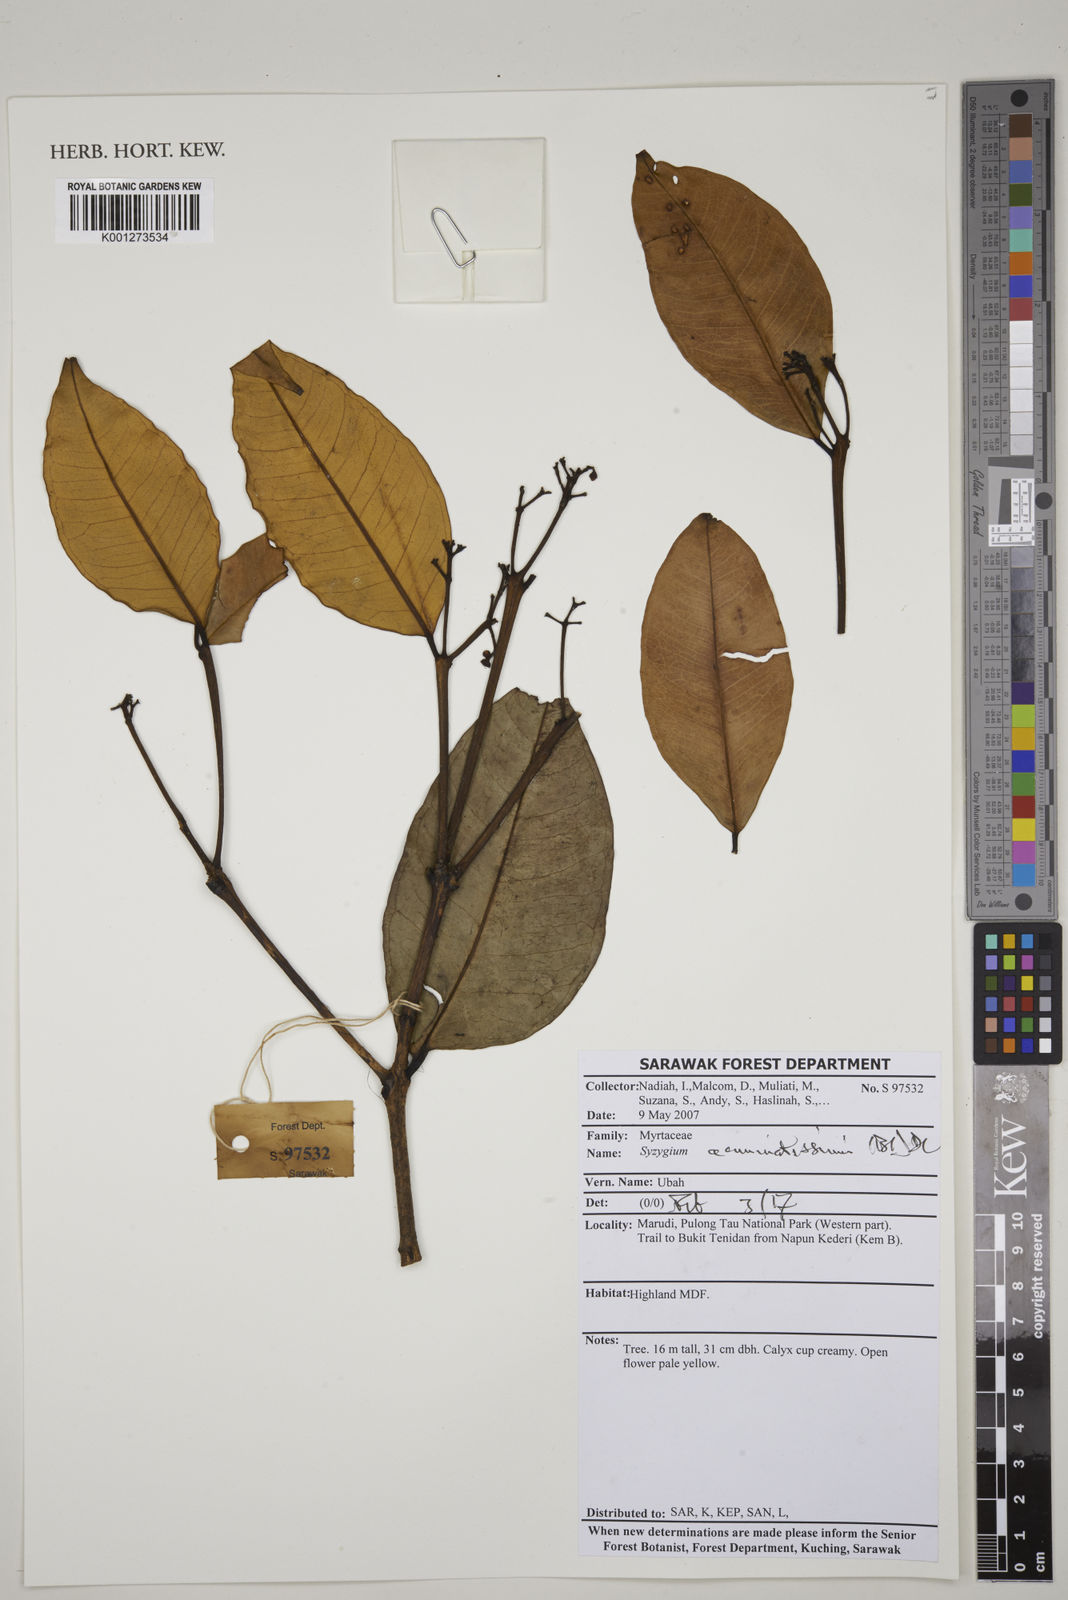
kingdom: Plantae
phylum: Tracheophyta
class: Magnoliopsida
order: Myrtales
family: Myrtaceae
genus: Syzygium
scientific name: Syzygium acuminatissimum
